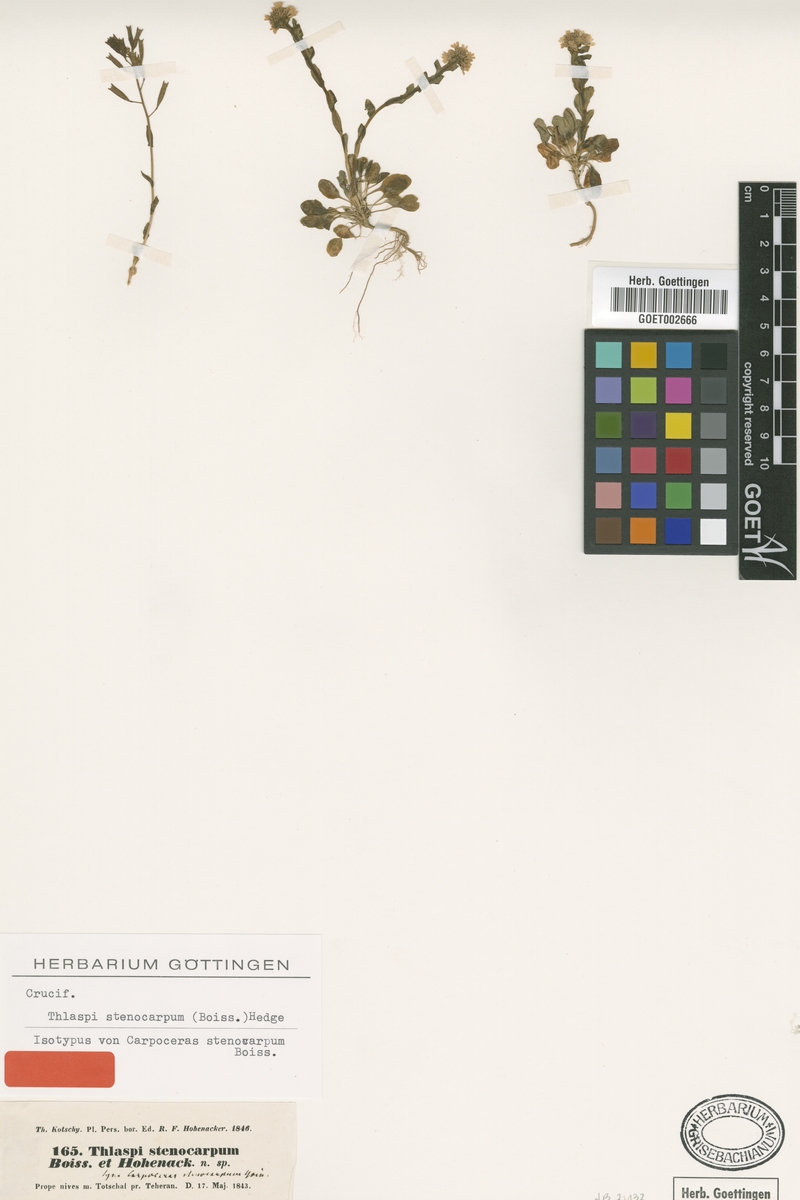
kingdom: Plantae
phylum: Tracheophyta
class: Magnoliopsida
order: Brassicales
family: Brassicaceae
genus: Noccaea
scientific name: Noccaea stenocarpa
